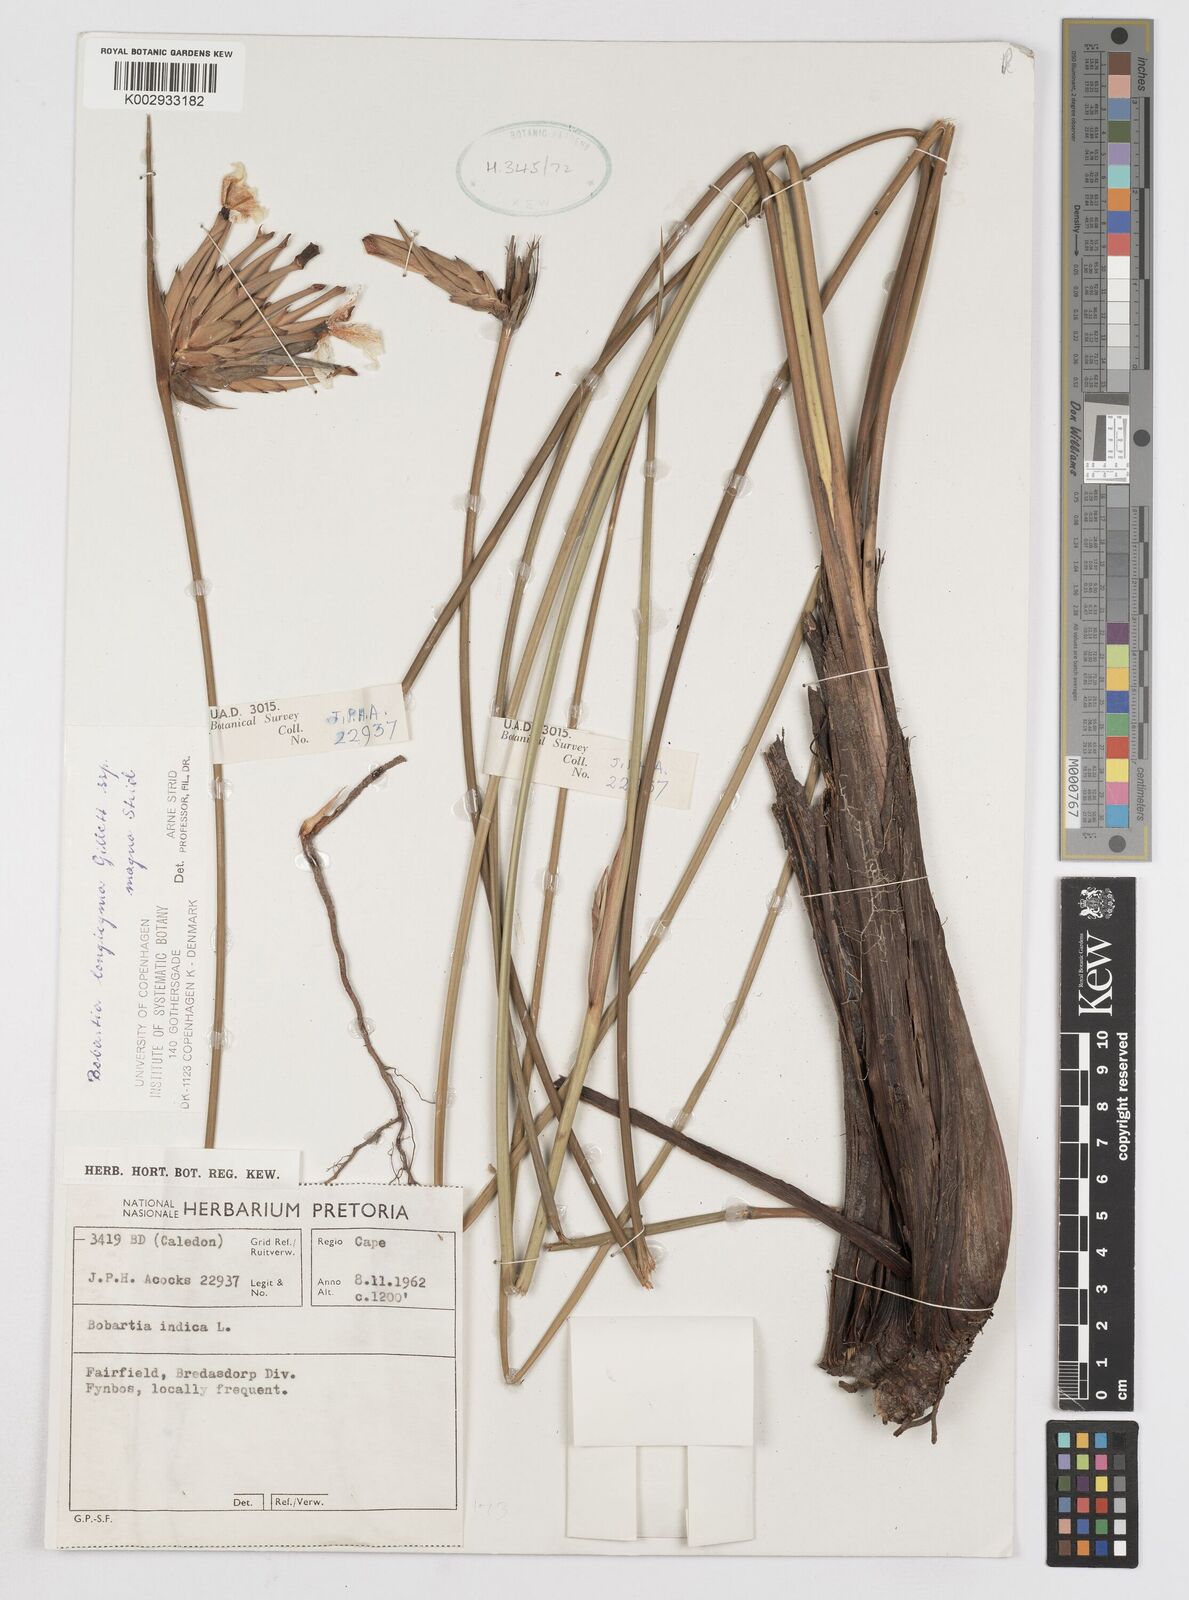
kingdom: Plantae
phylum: Tracheophyta
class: Liliopsida
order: Asparagales
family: Iridaceae
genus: Bobartia
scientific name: Bobartia longicyma
